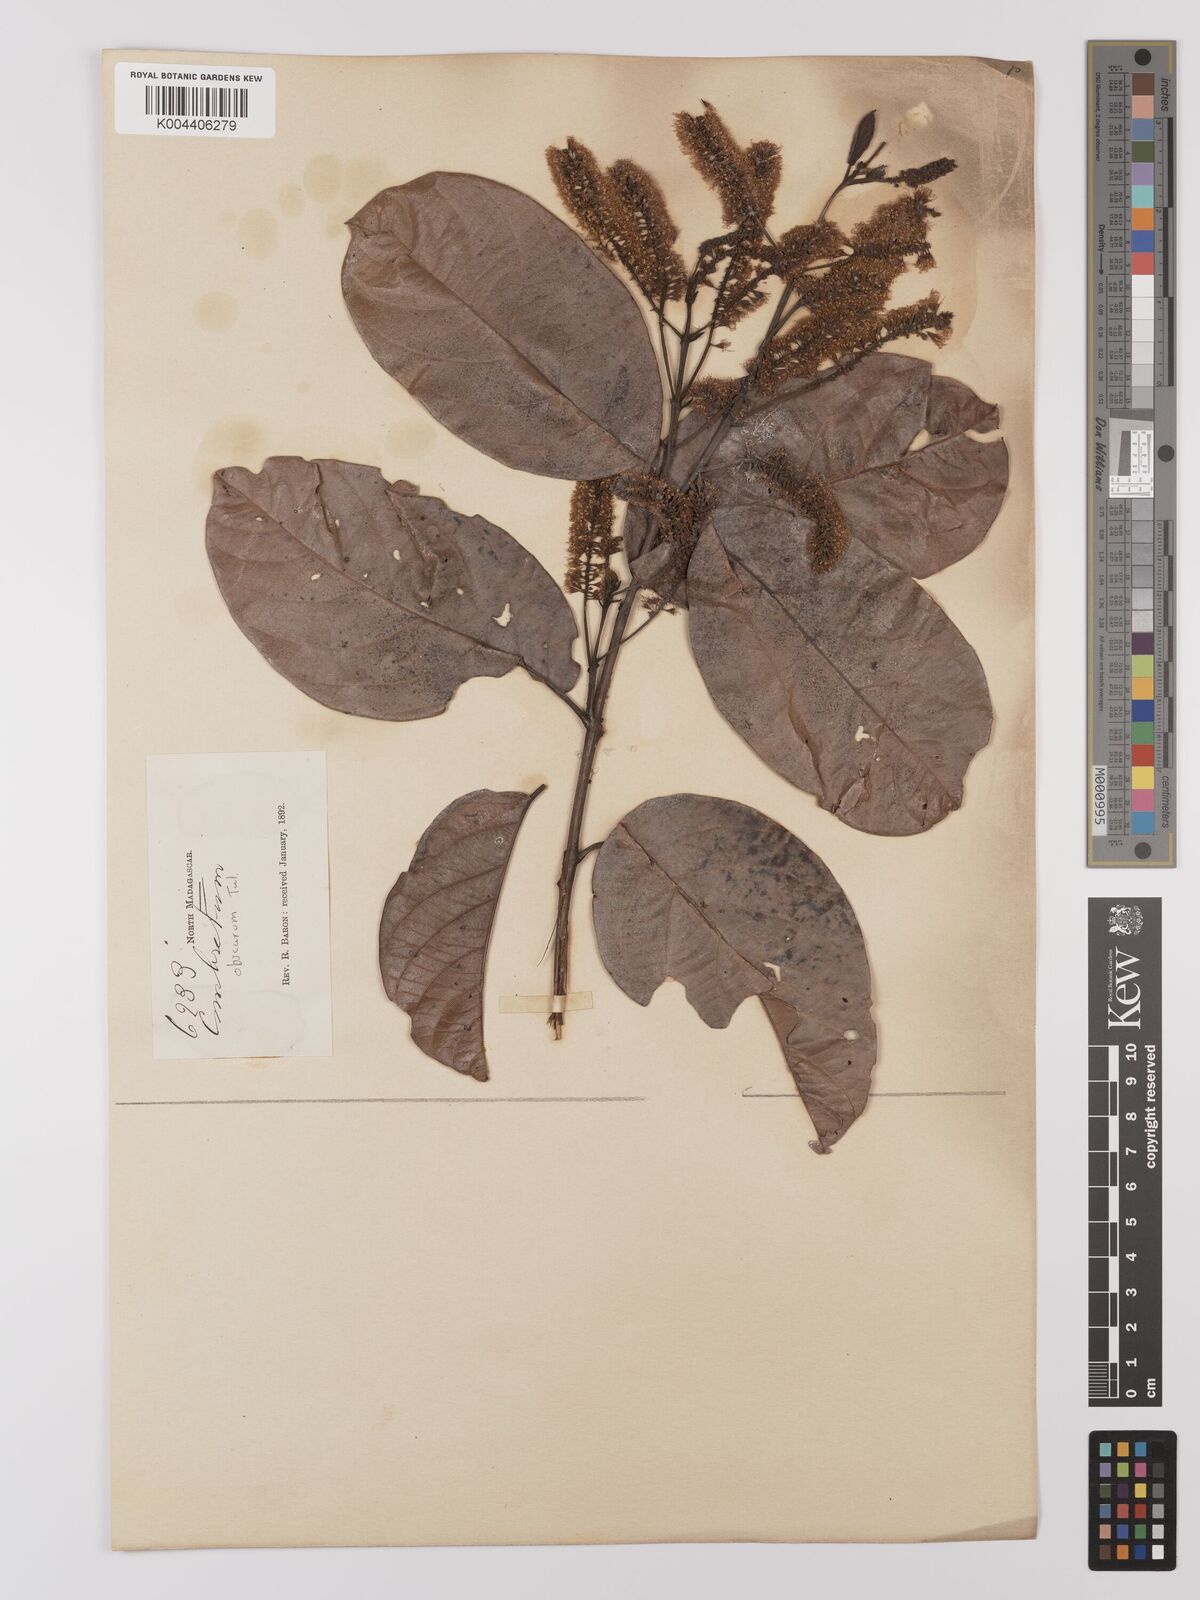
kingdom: Plantae
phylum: Tracheophyta
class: Magnoliopsida
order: Myrtales
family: Combretaceae
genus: Combretum
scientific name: Combretum obscurum
